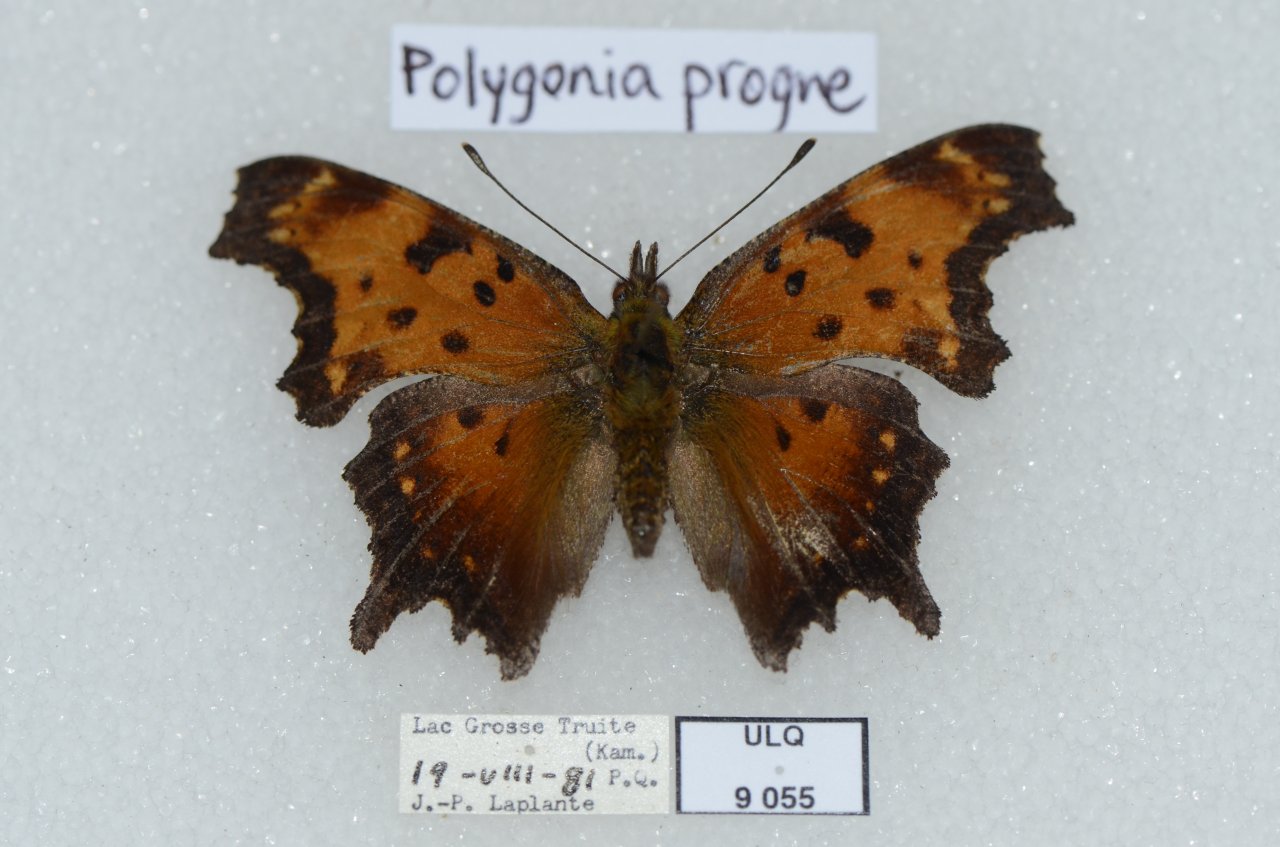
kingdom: Animalia
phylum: Arthropoda
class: Insecta
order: Lepidoptera
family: Nymphalidae
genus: Polygonia
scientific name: Polygonia progne
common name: Gray Comma
